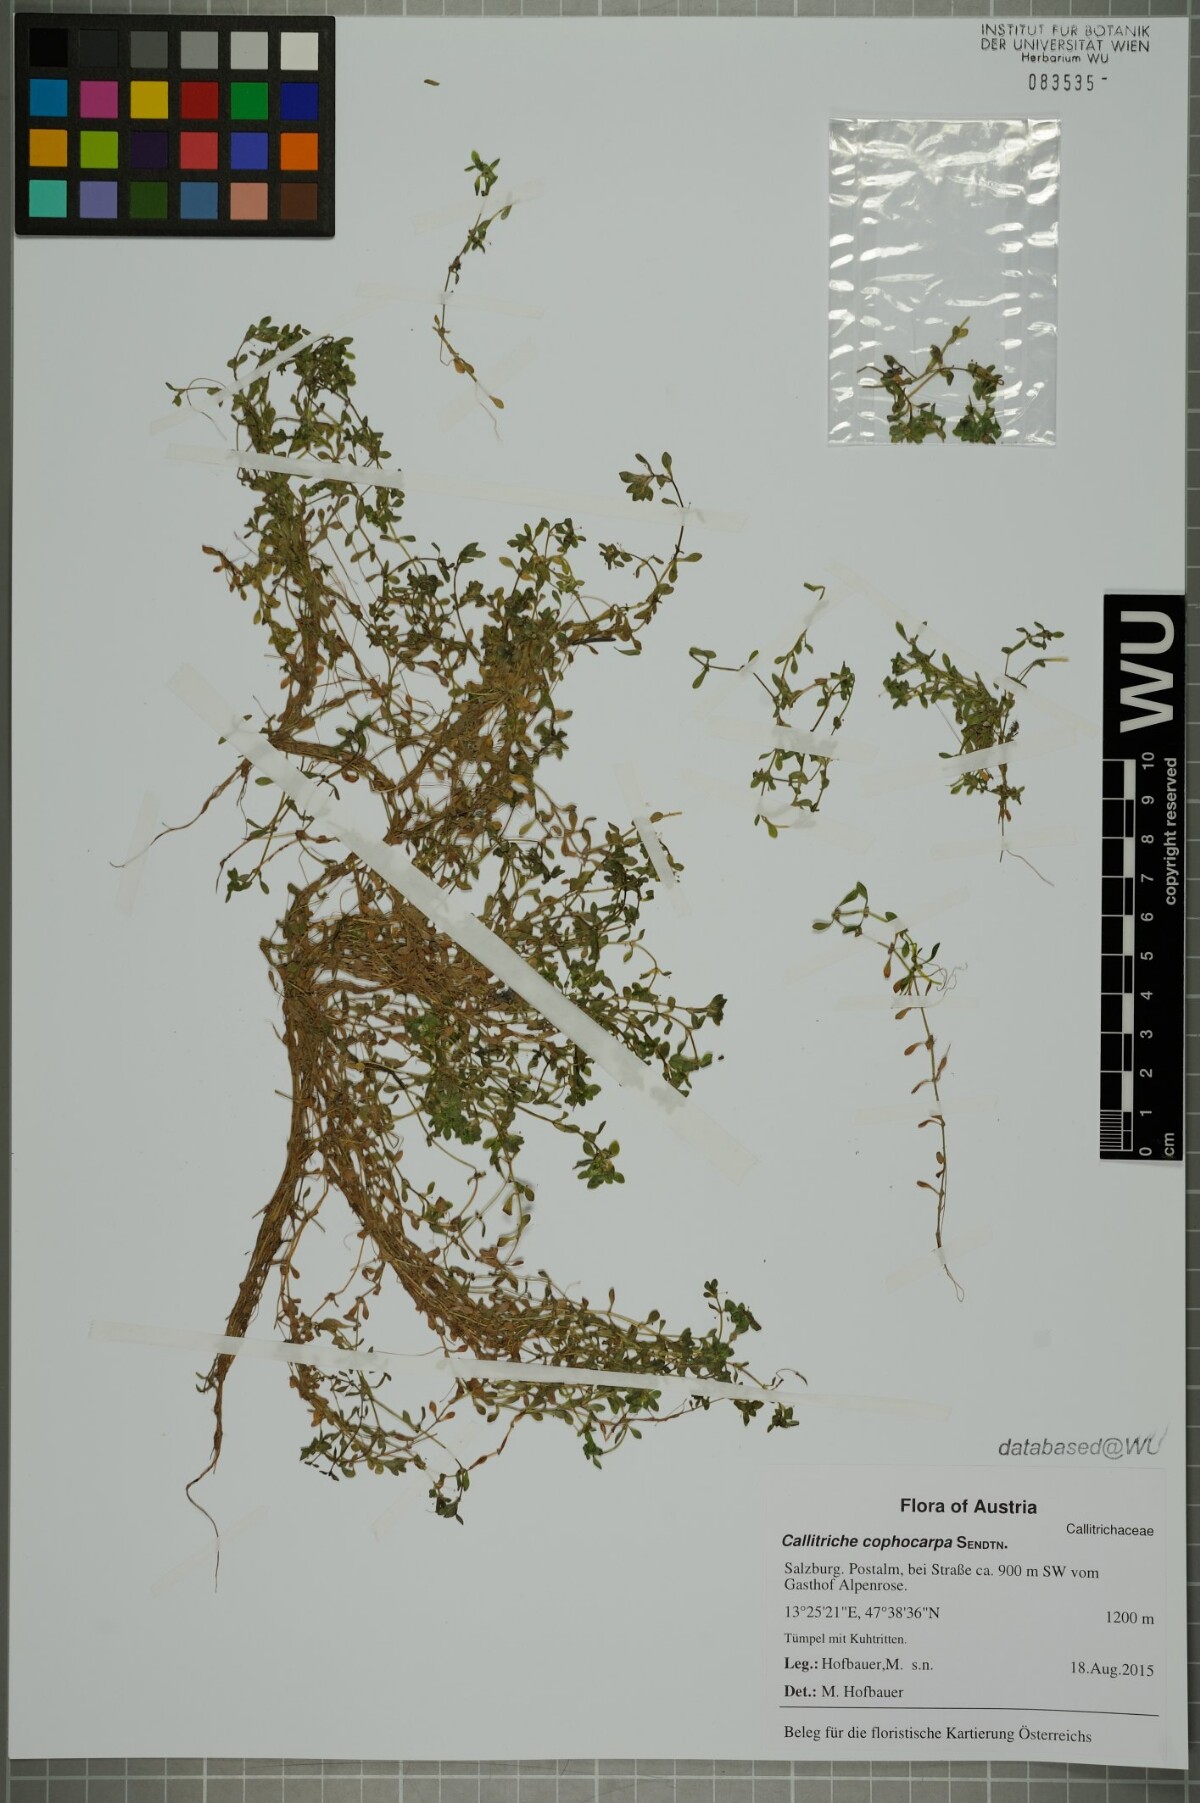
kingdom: Plantae
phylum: Tracheophyta
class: Magnoliopsida
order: Lamiales
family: Plantaginaceae
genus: Callitriche
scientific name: Callitriche cophocarpa
